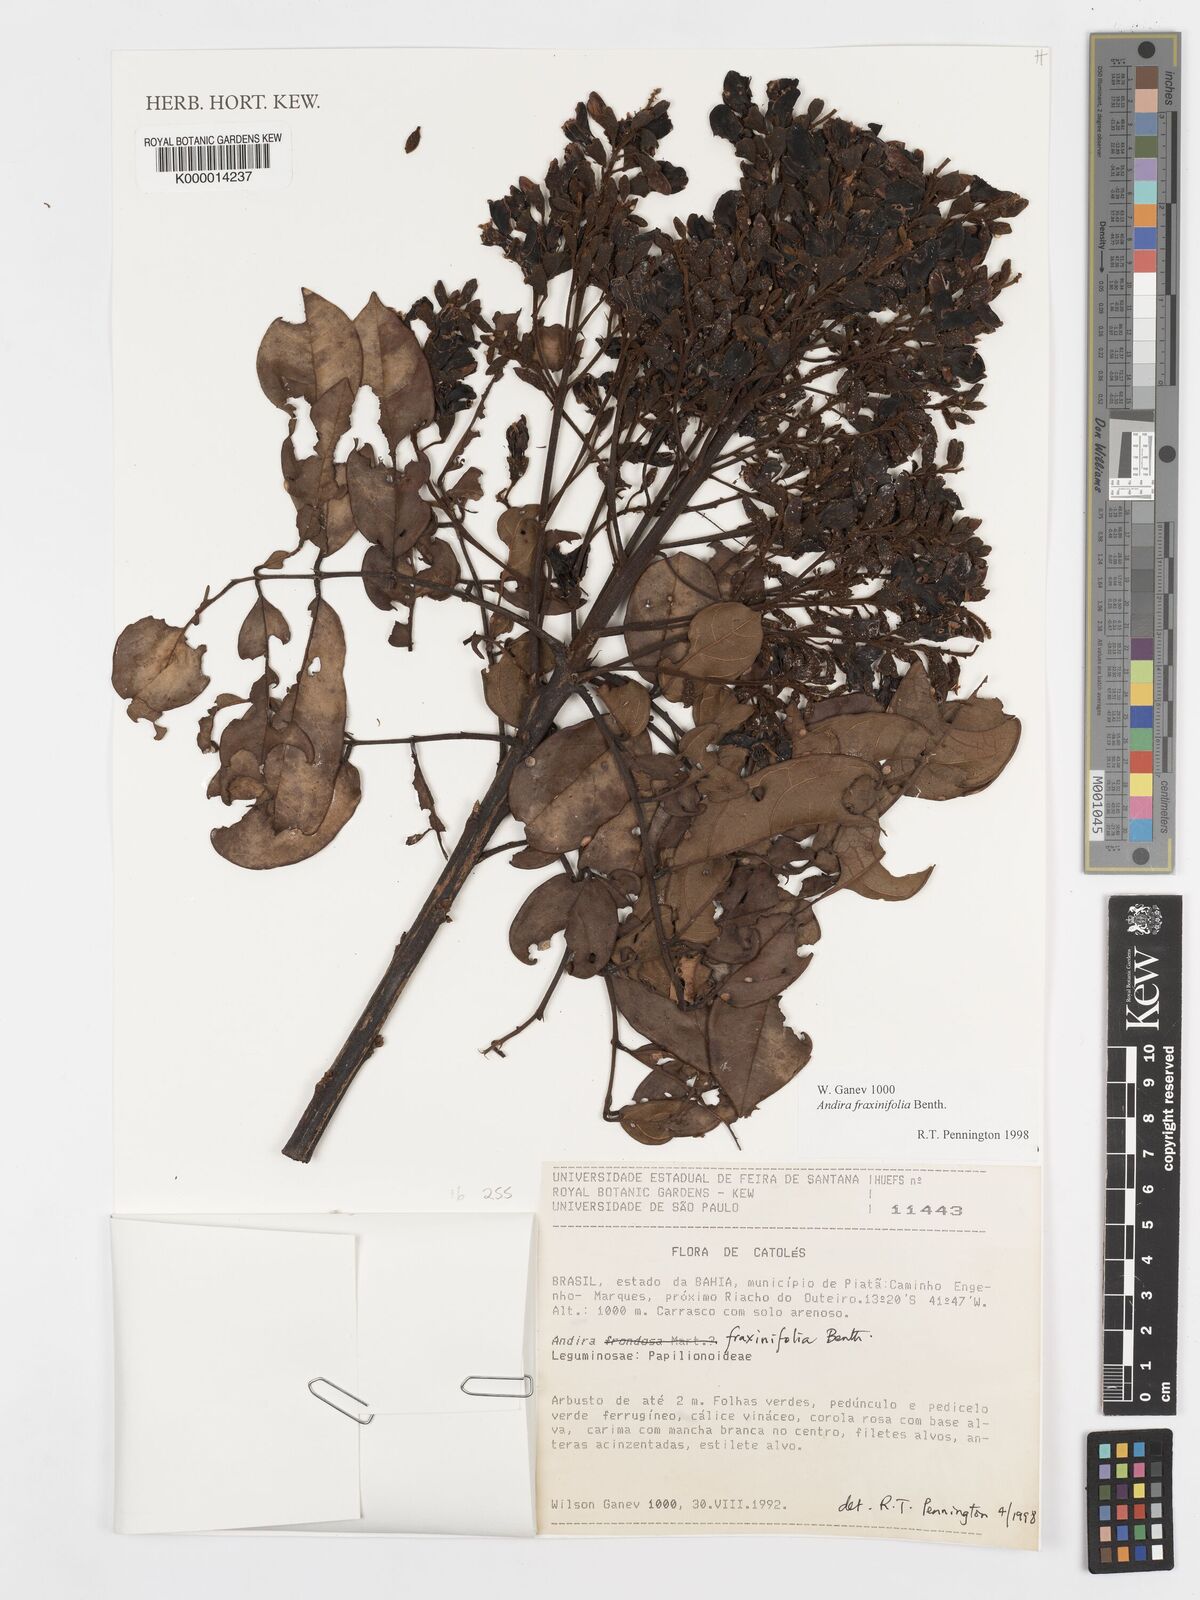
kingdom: Plantae
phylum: Tracheophyta
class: Magnoliopsida
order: Fabales
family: Fabaceae
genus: Andira
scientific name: Andira fraxinifolia
